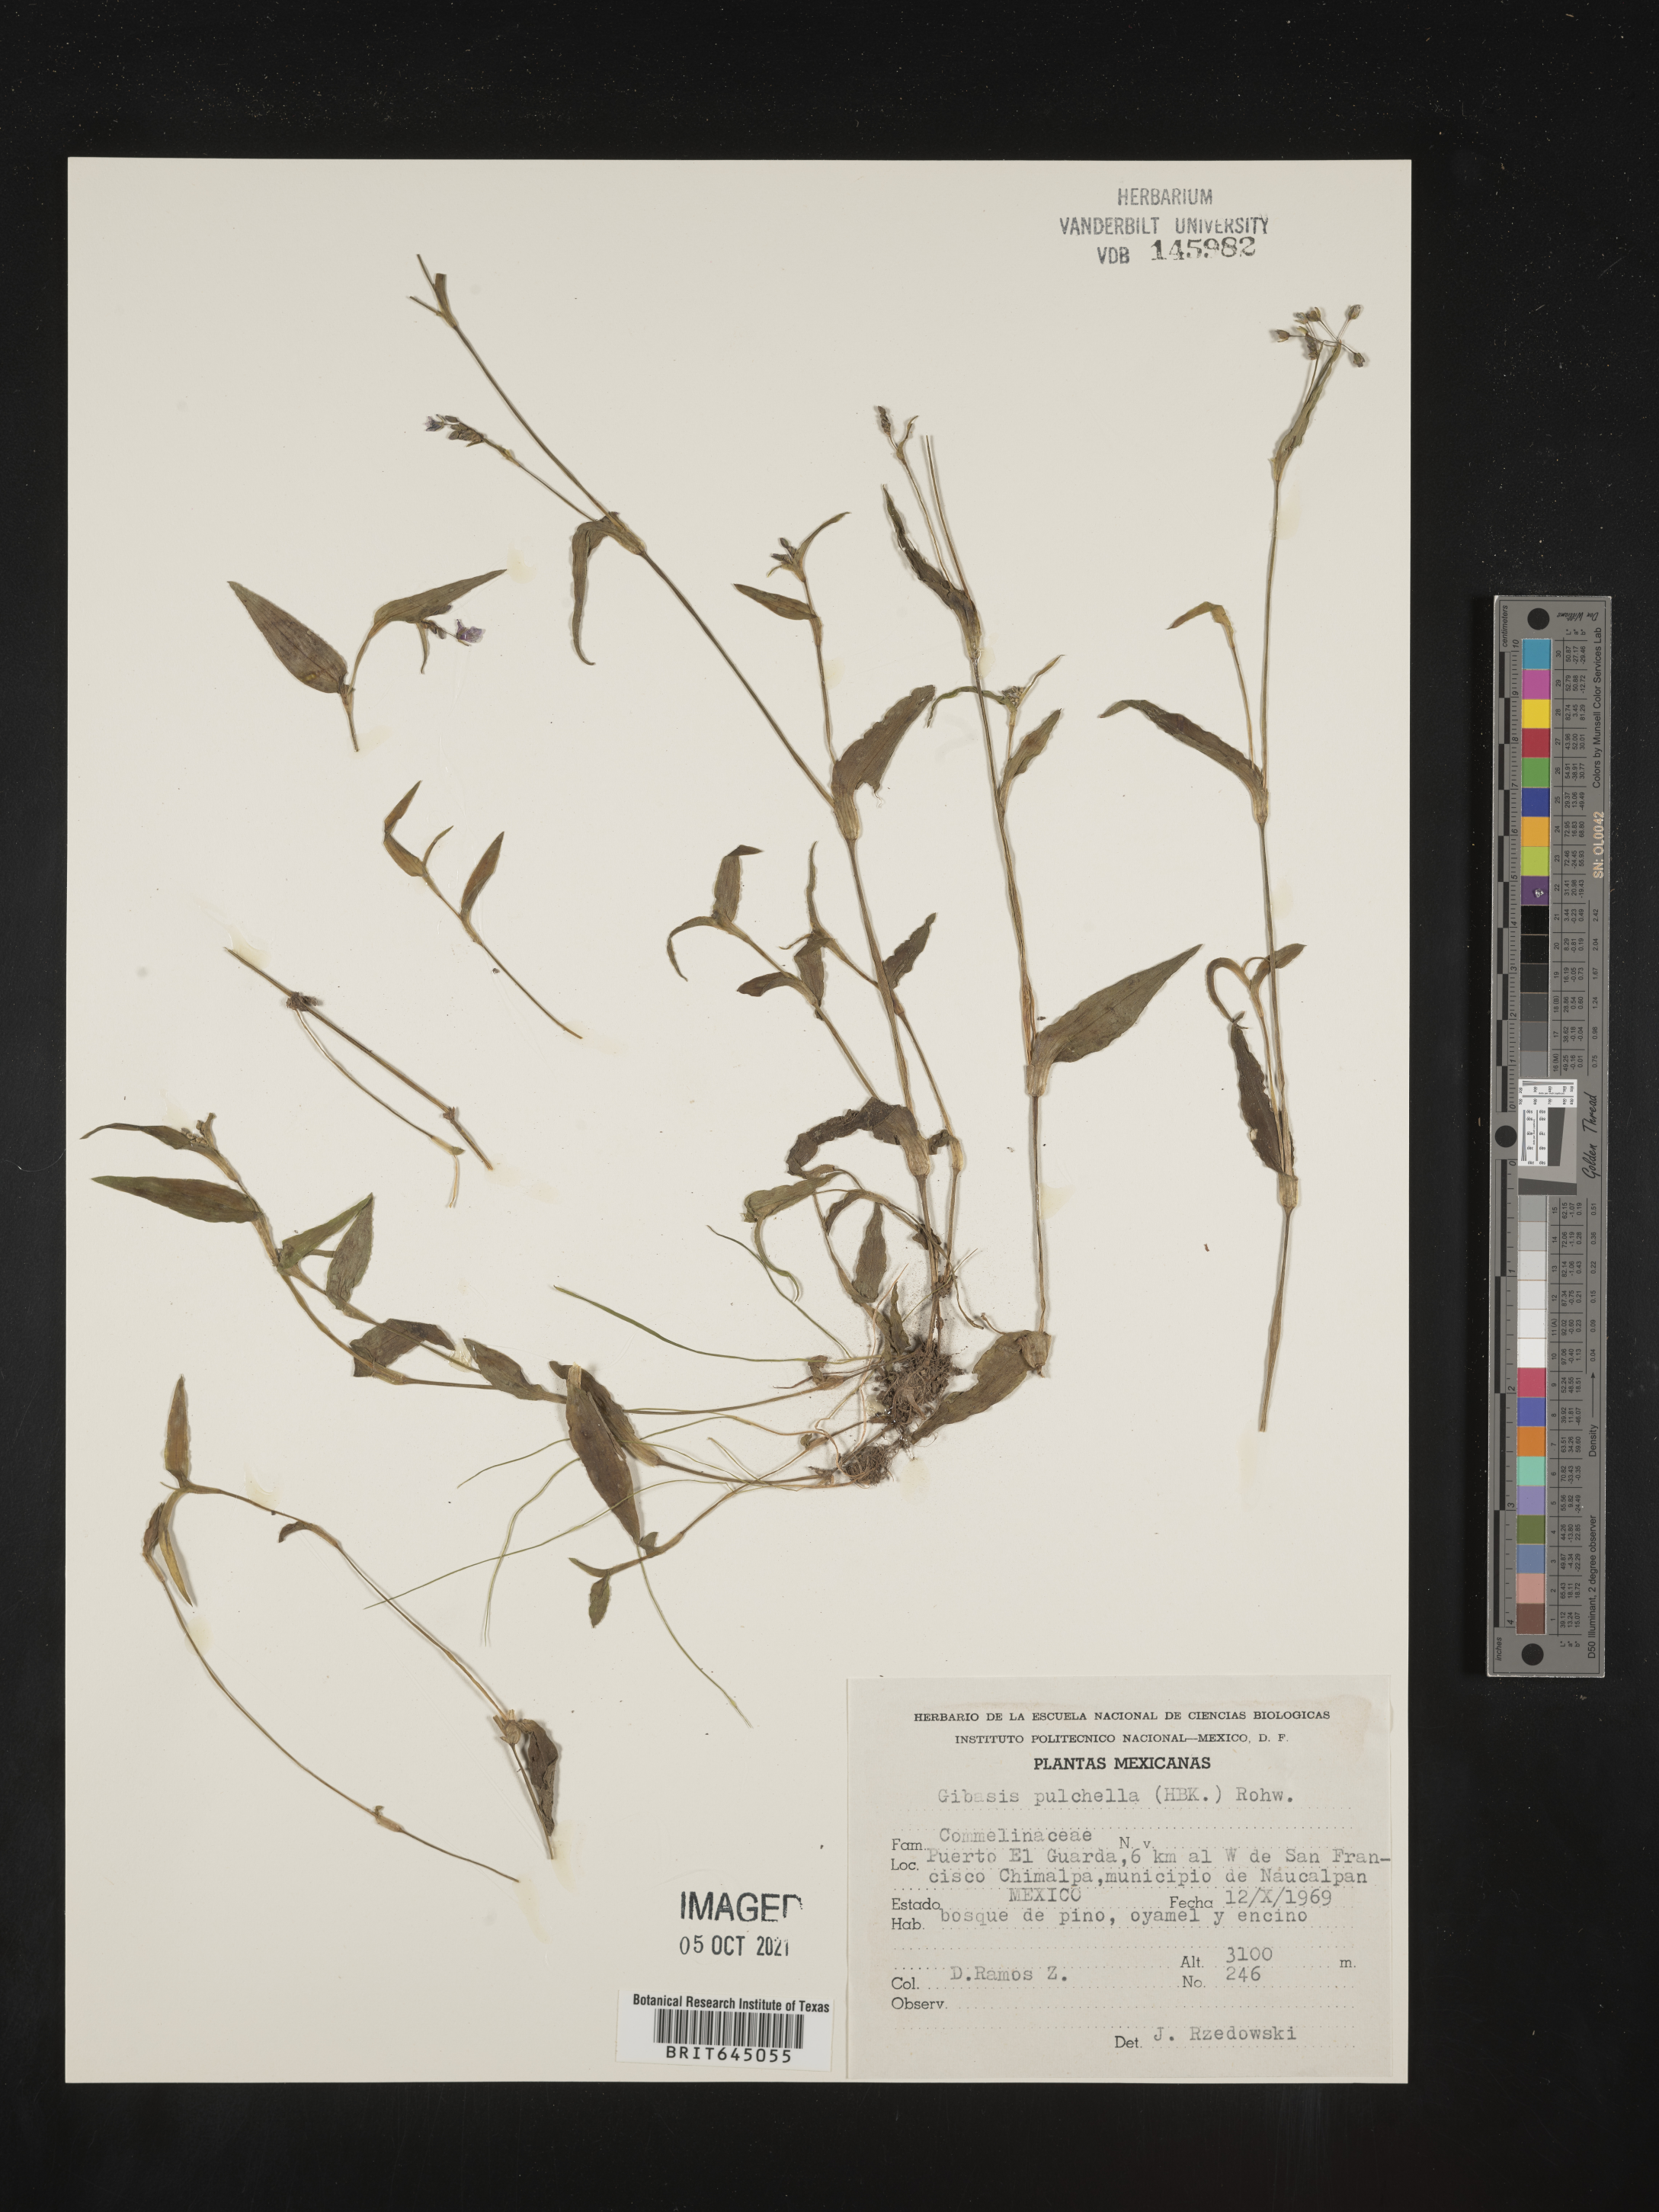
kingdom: Plantae
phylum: Tracheophyta
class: Liliopsida
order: Commelinales
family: Commelinaceae
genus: Gibasis
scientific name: Gibasis
